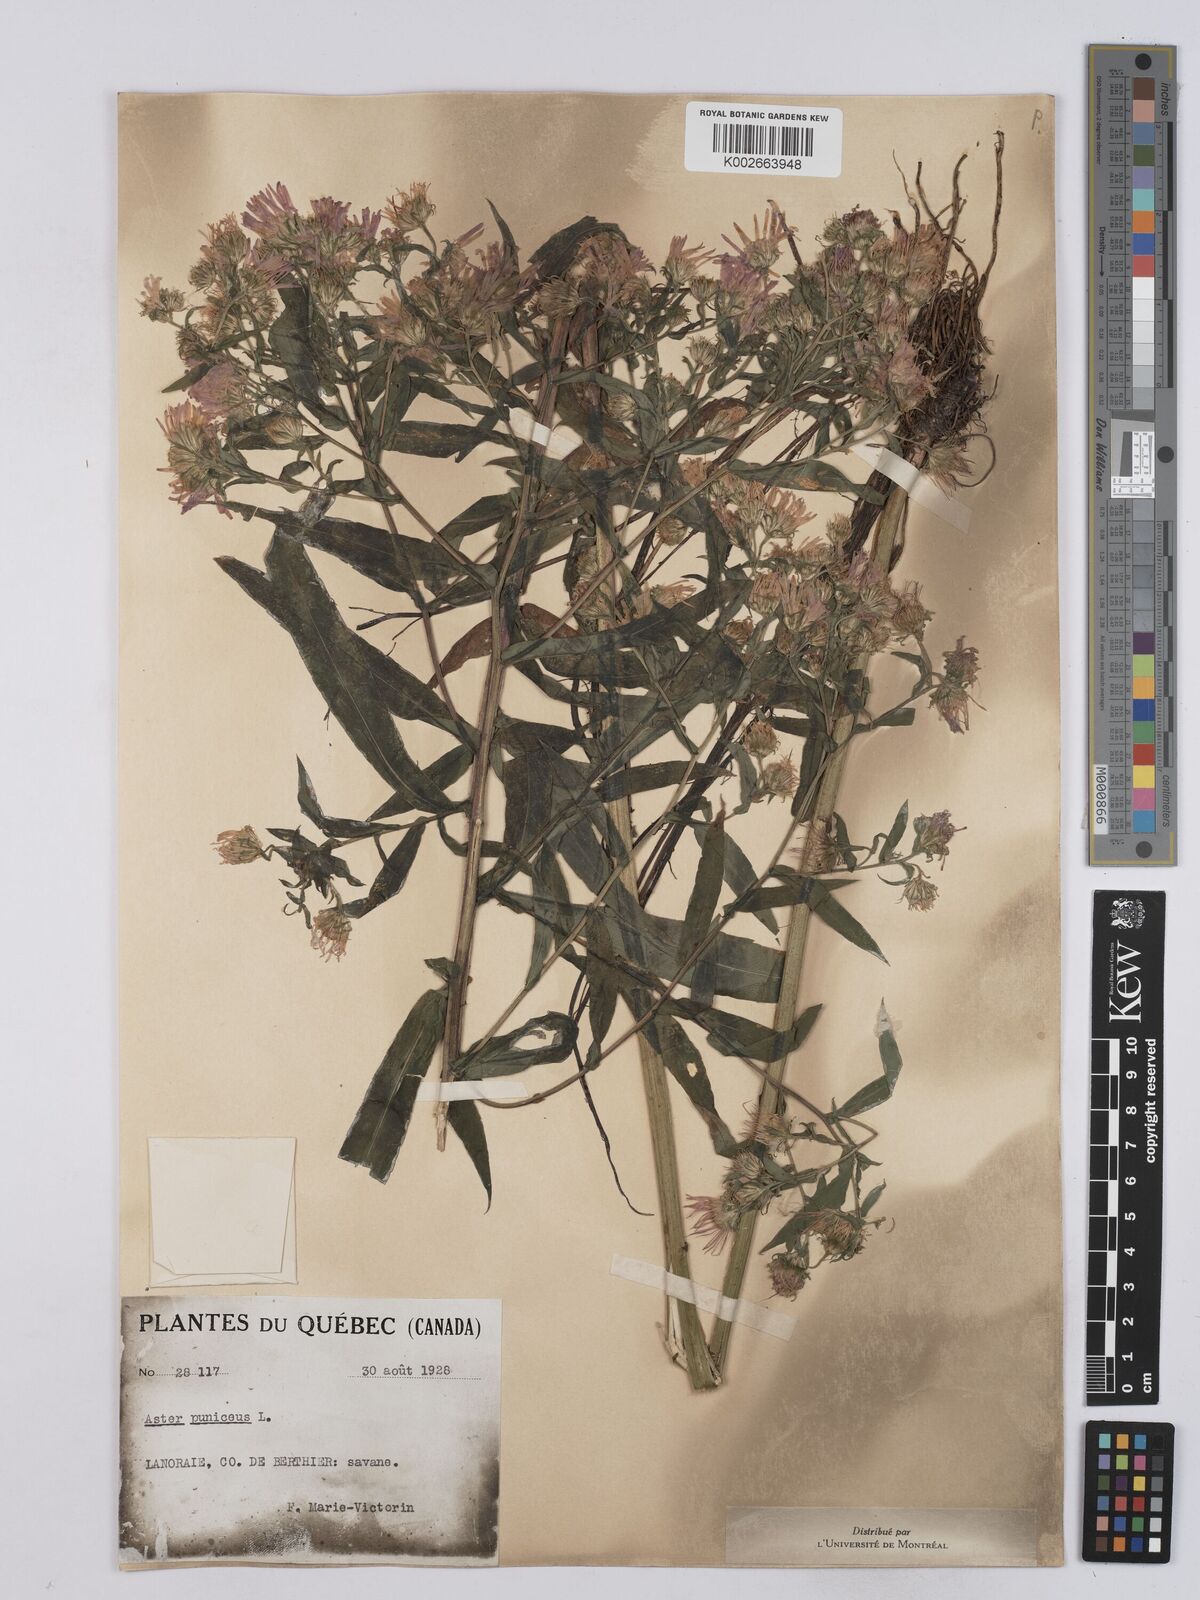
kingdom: Plantae
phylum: Tracheophyta
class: Magnoliopsida
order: Asterales
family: Asteraceae
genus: Symphyotrichum
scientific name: Symphyotrichum puniceum
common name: Bog aster
